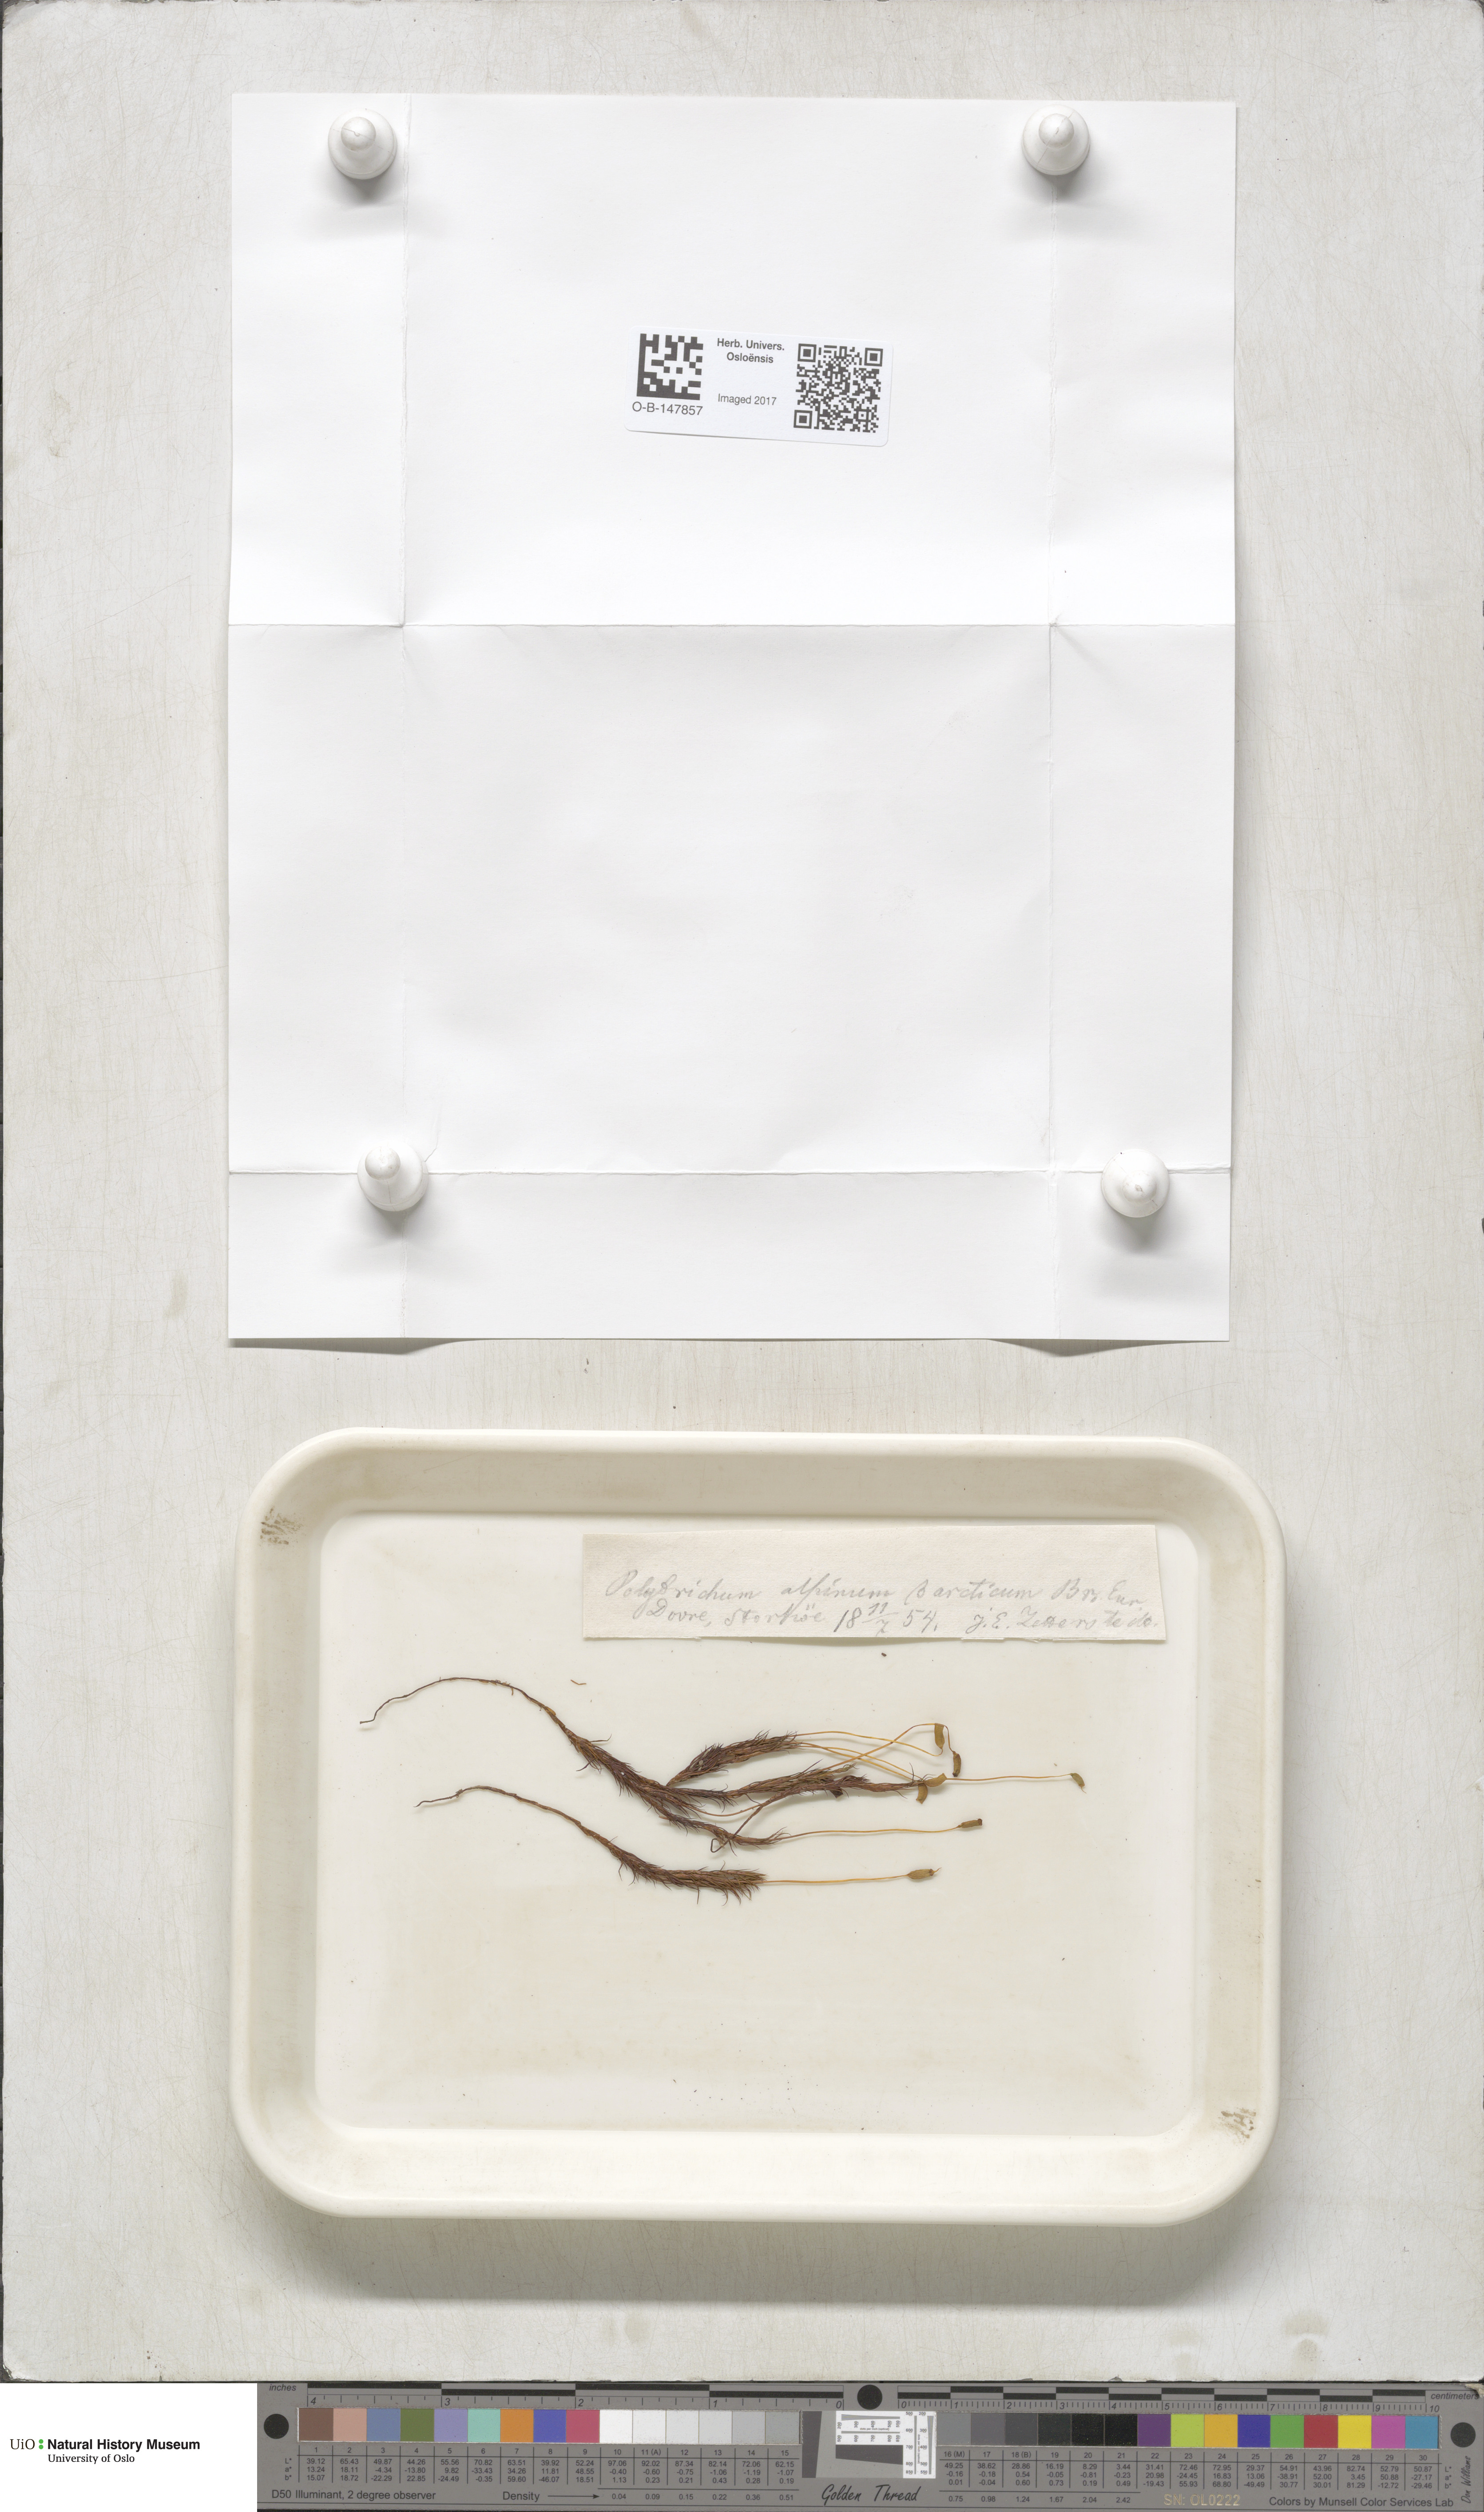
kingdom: Plantae
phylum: Bryophyta
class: Polytrichopsida
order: Polytrichales
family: Polytrichaceae
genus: Polytrichastrum
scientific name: Polytrichastrum alpinum
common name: Alpine haircap
